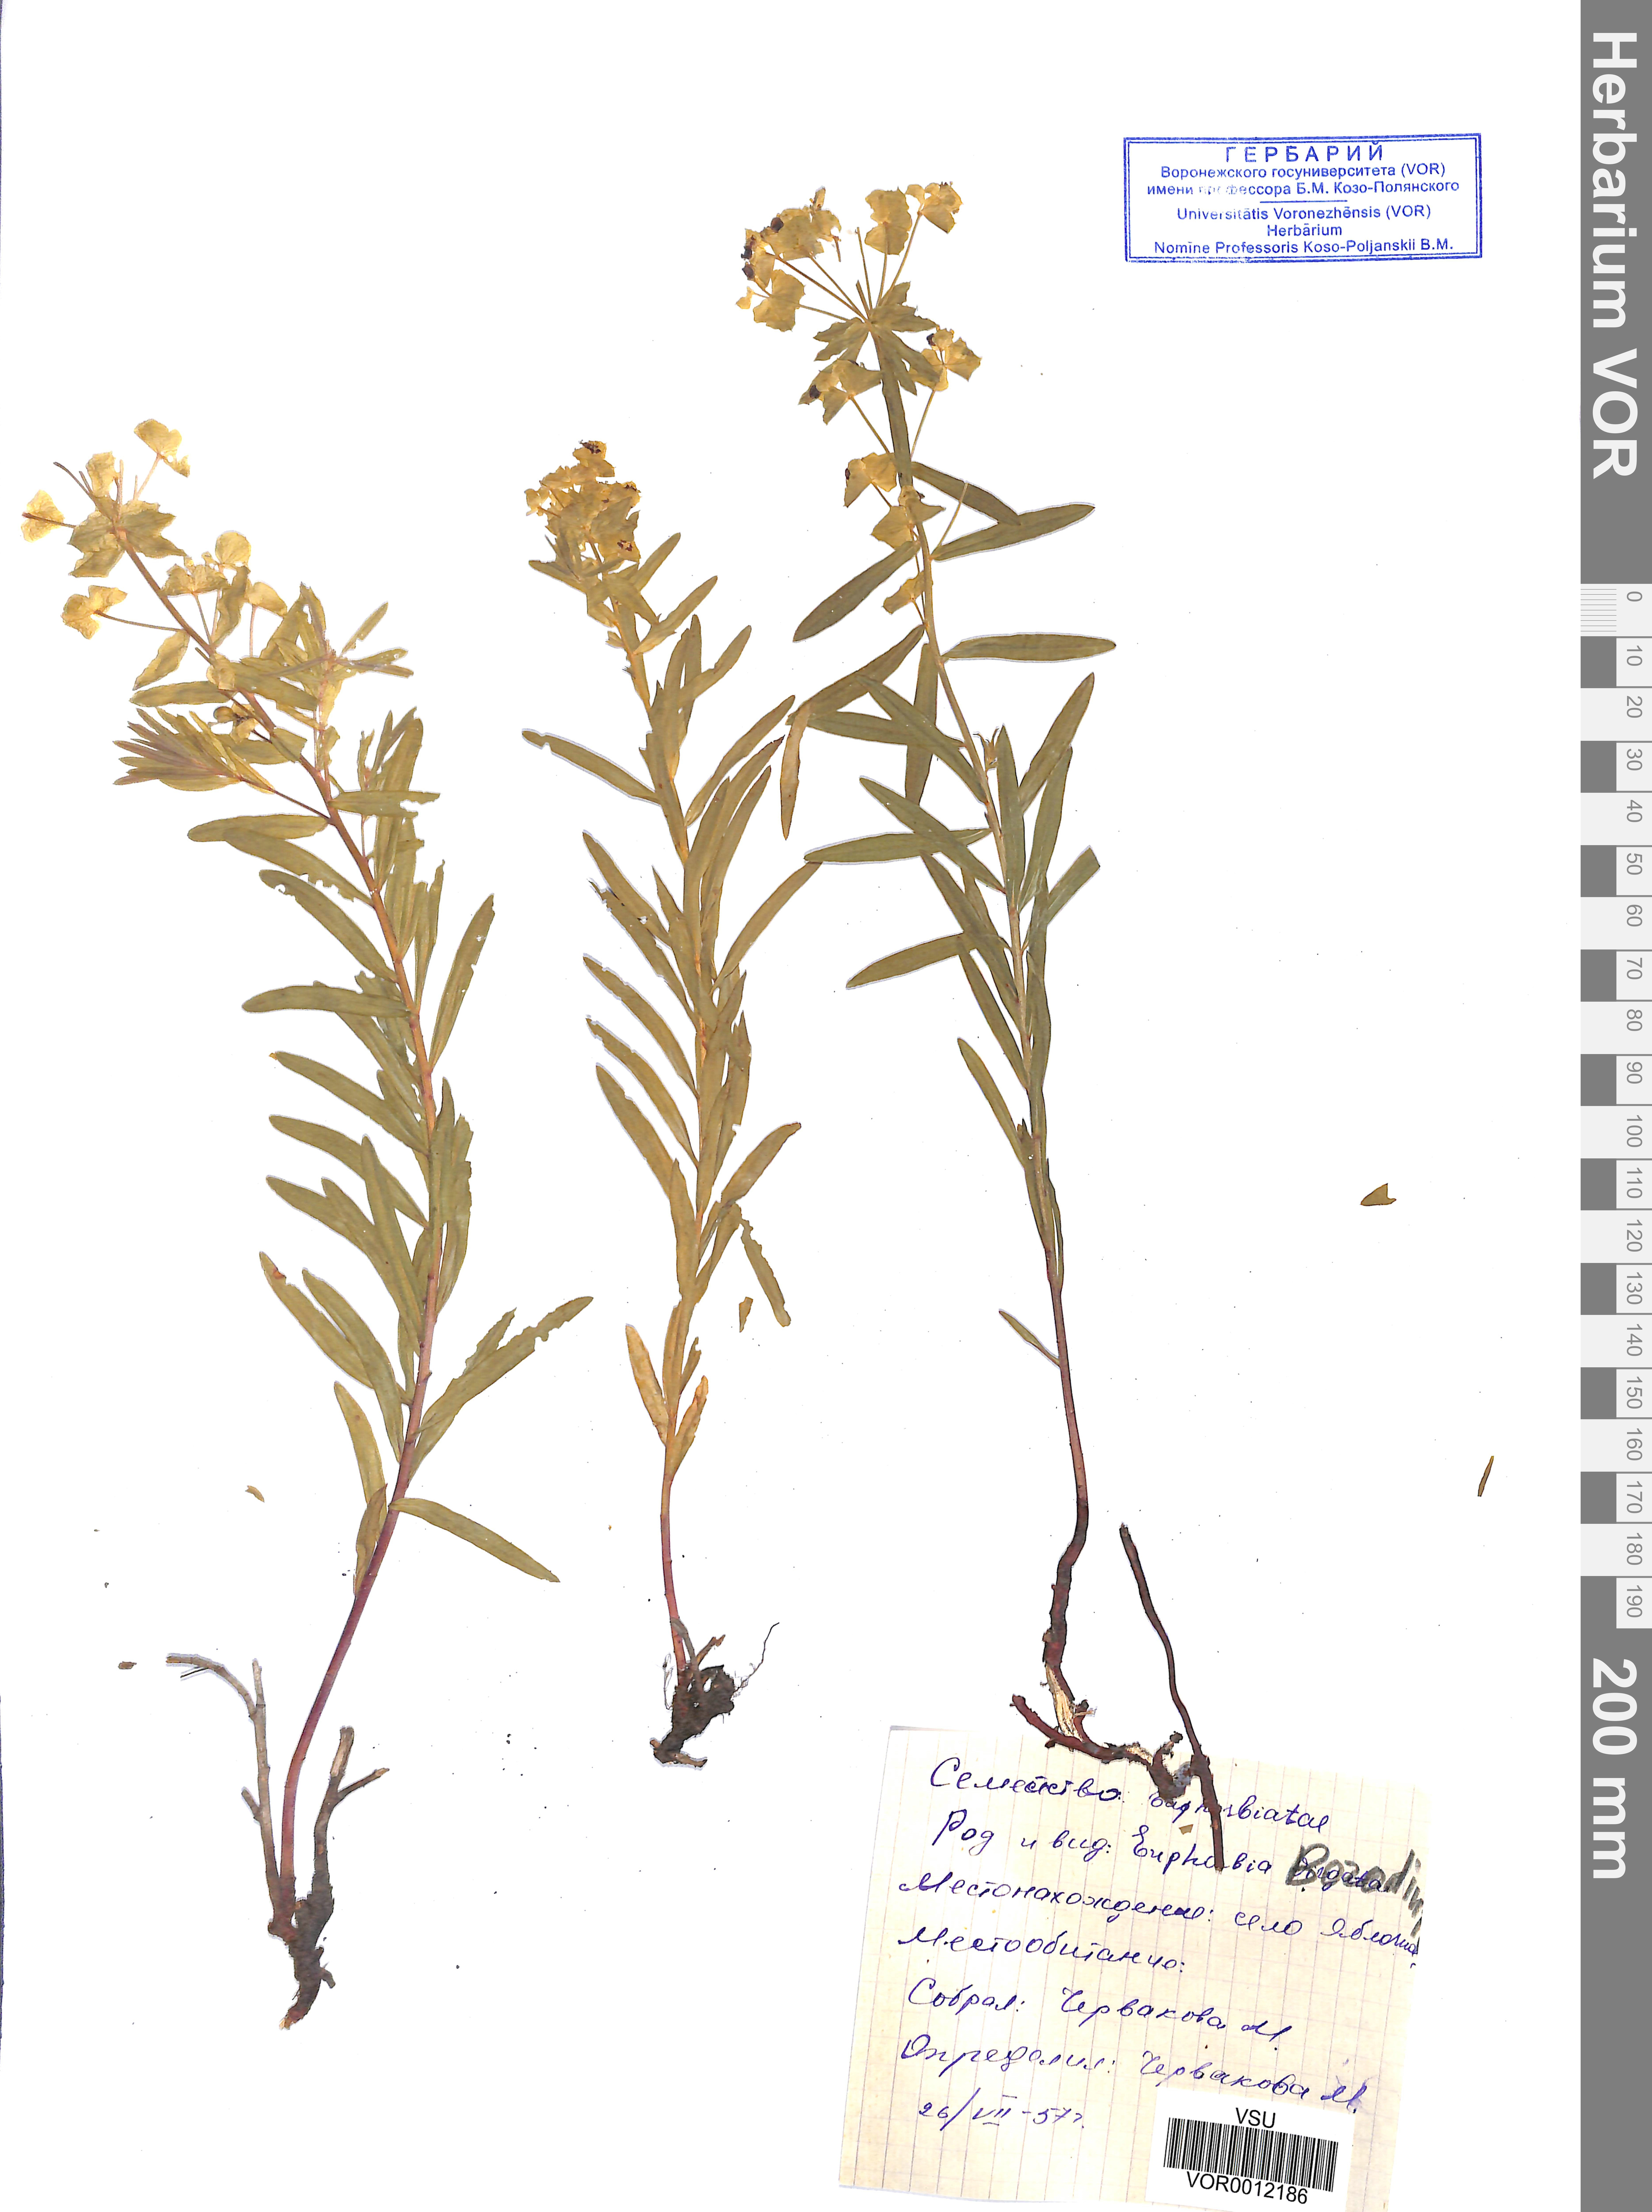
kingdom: Plantae
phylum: Tracheophyta
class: Magnoliopsida
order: Malpighiales
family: Euphorbiaceae
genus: Euphorbia
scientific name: Euphorbia esula
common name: Leafy spurge
